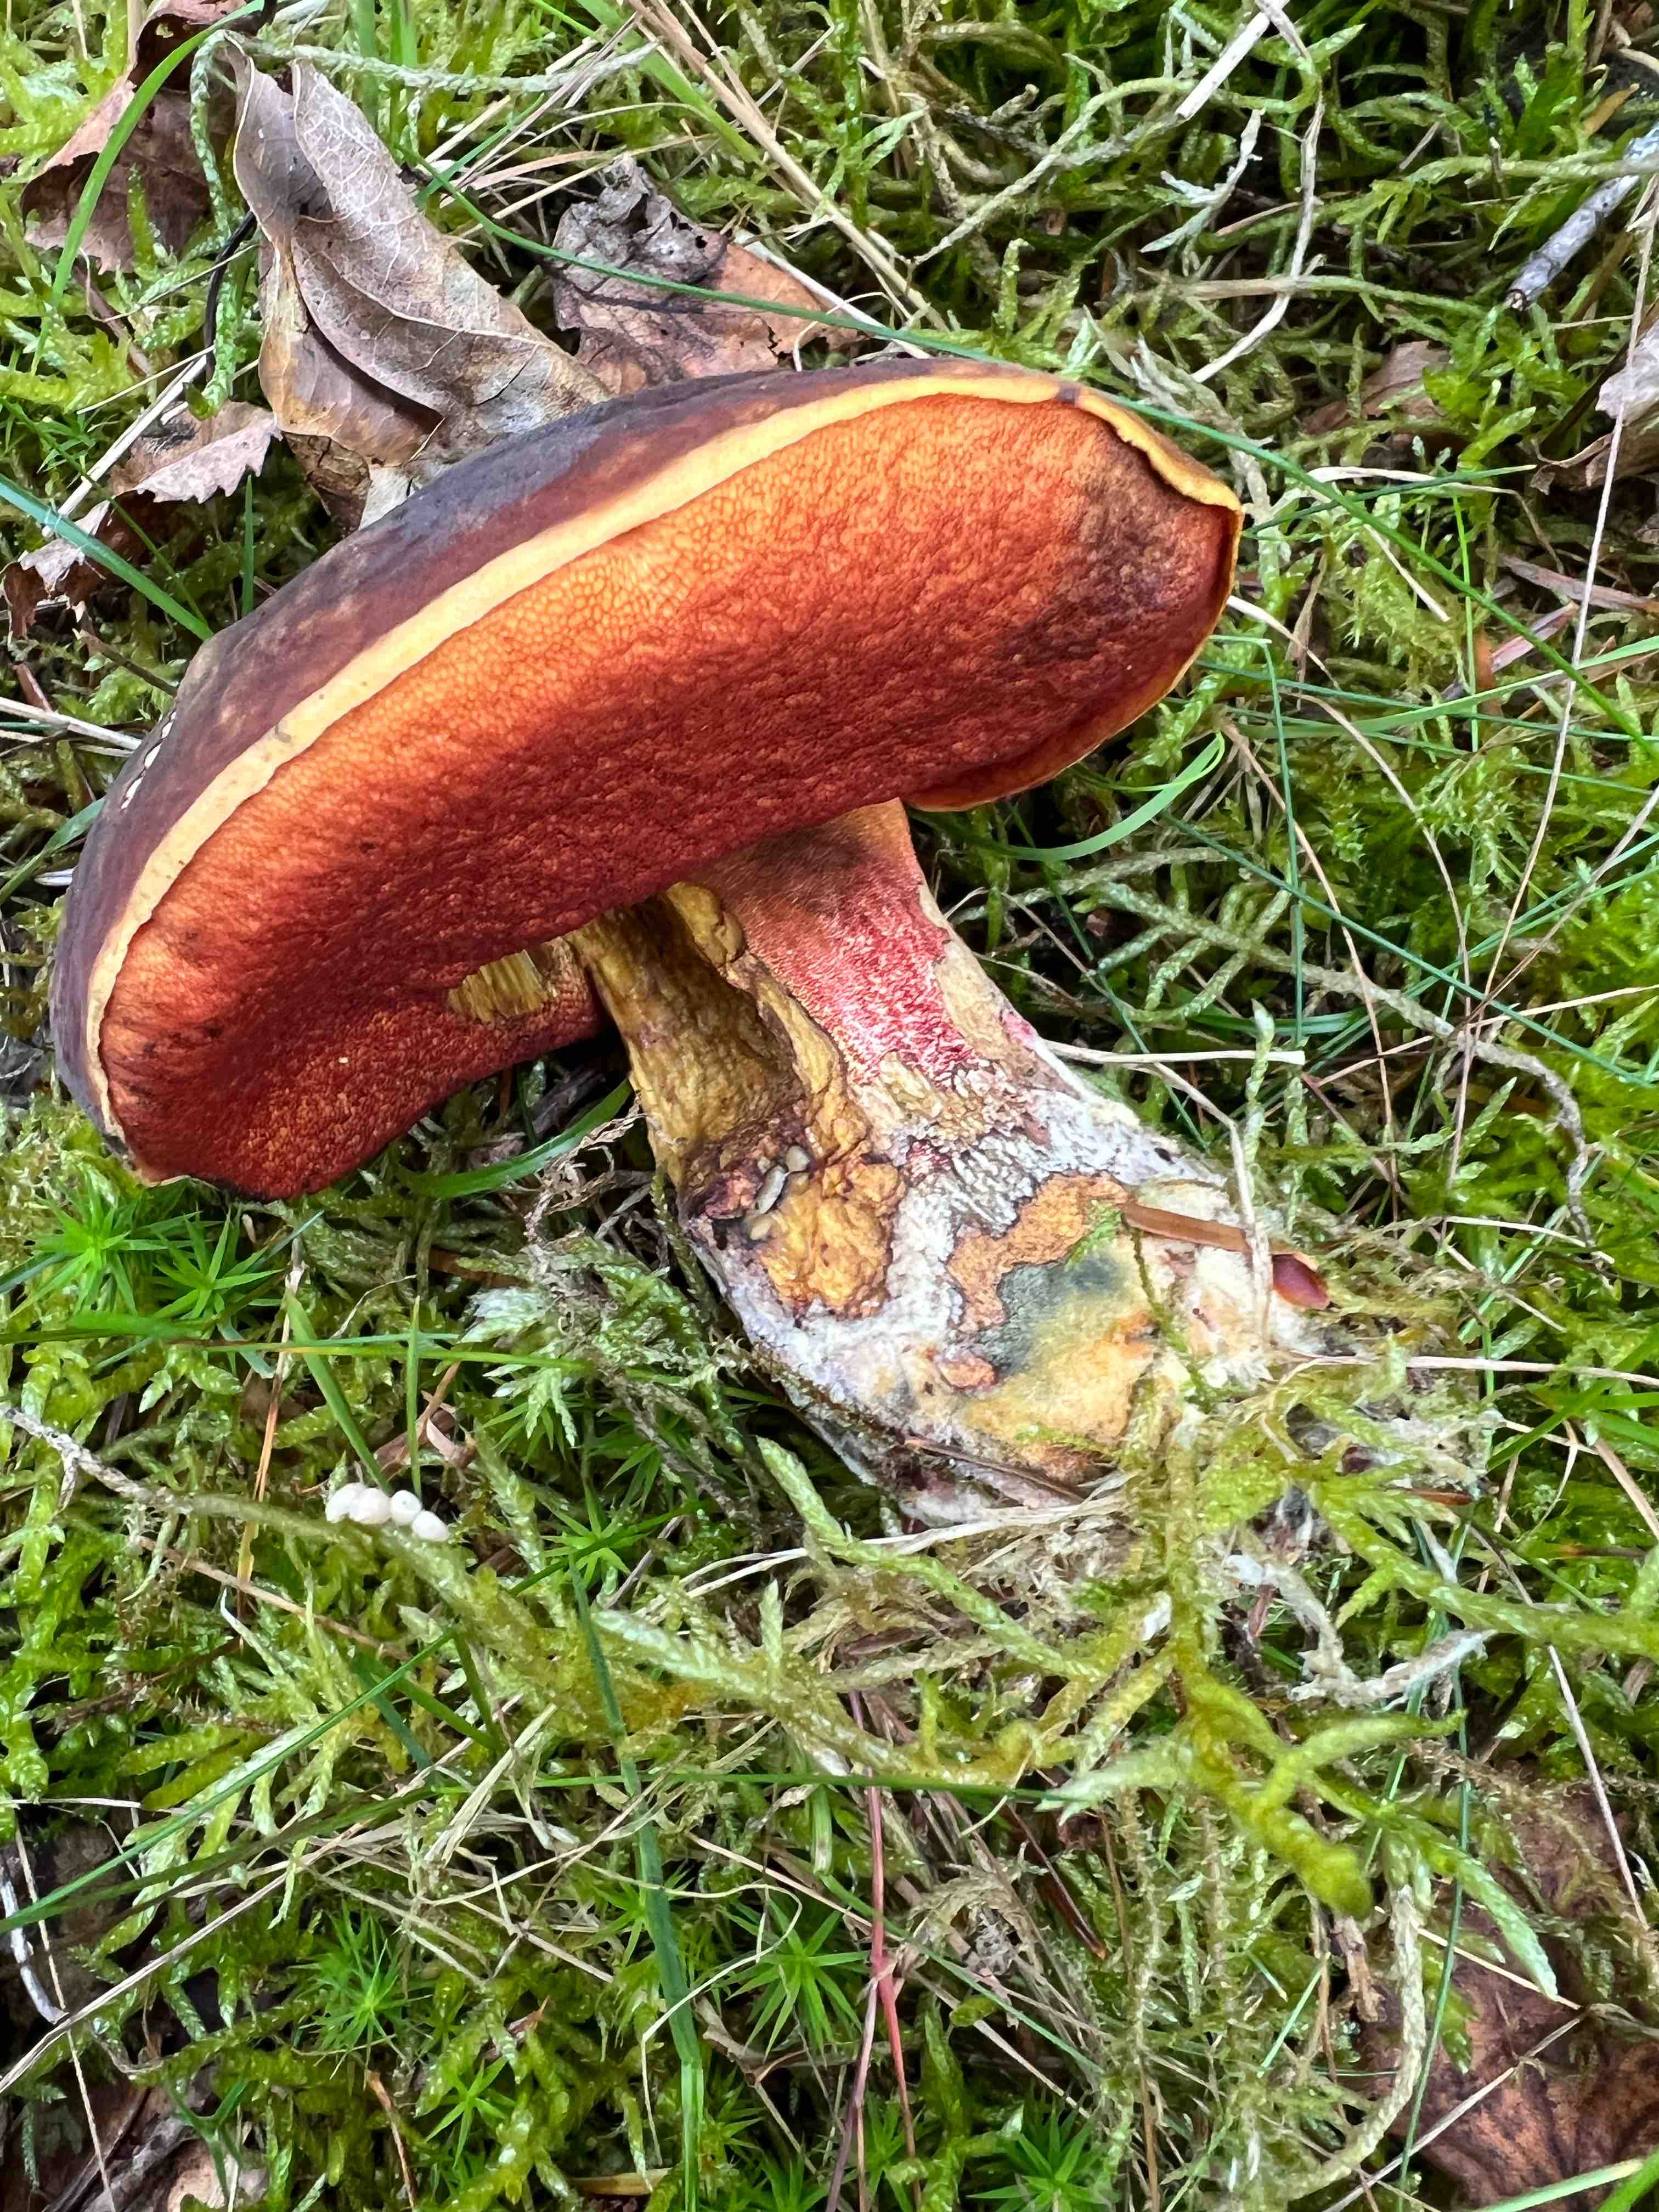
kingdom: Fungi
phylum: Basidiomycota
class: Agaricomycetes
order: Boletales
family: Boletaceae
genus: Neoboletus
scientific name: Neoboletus erythropus
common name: punktstokket indigorørhat
